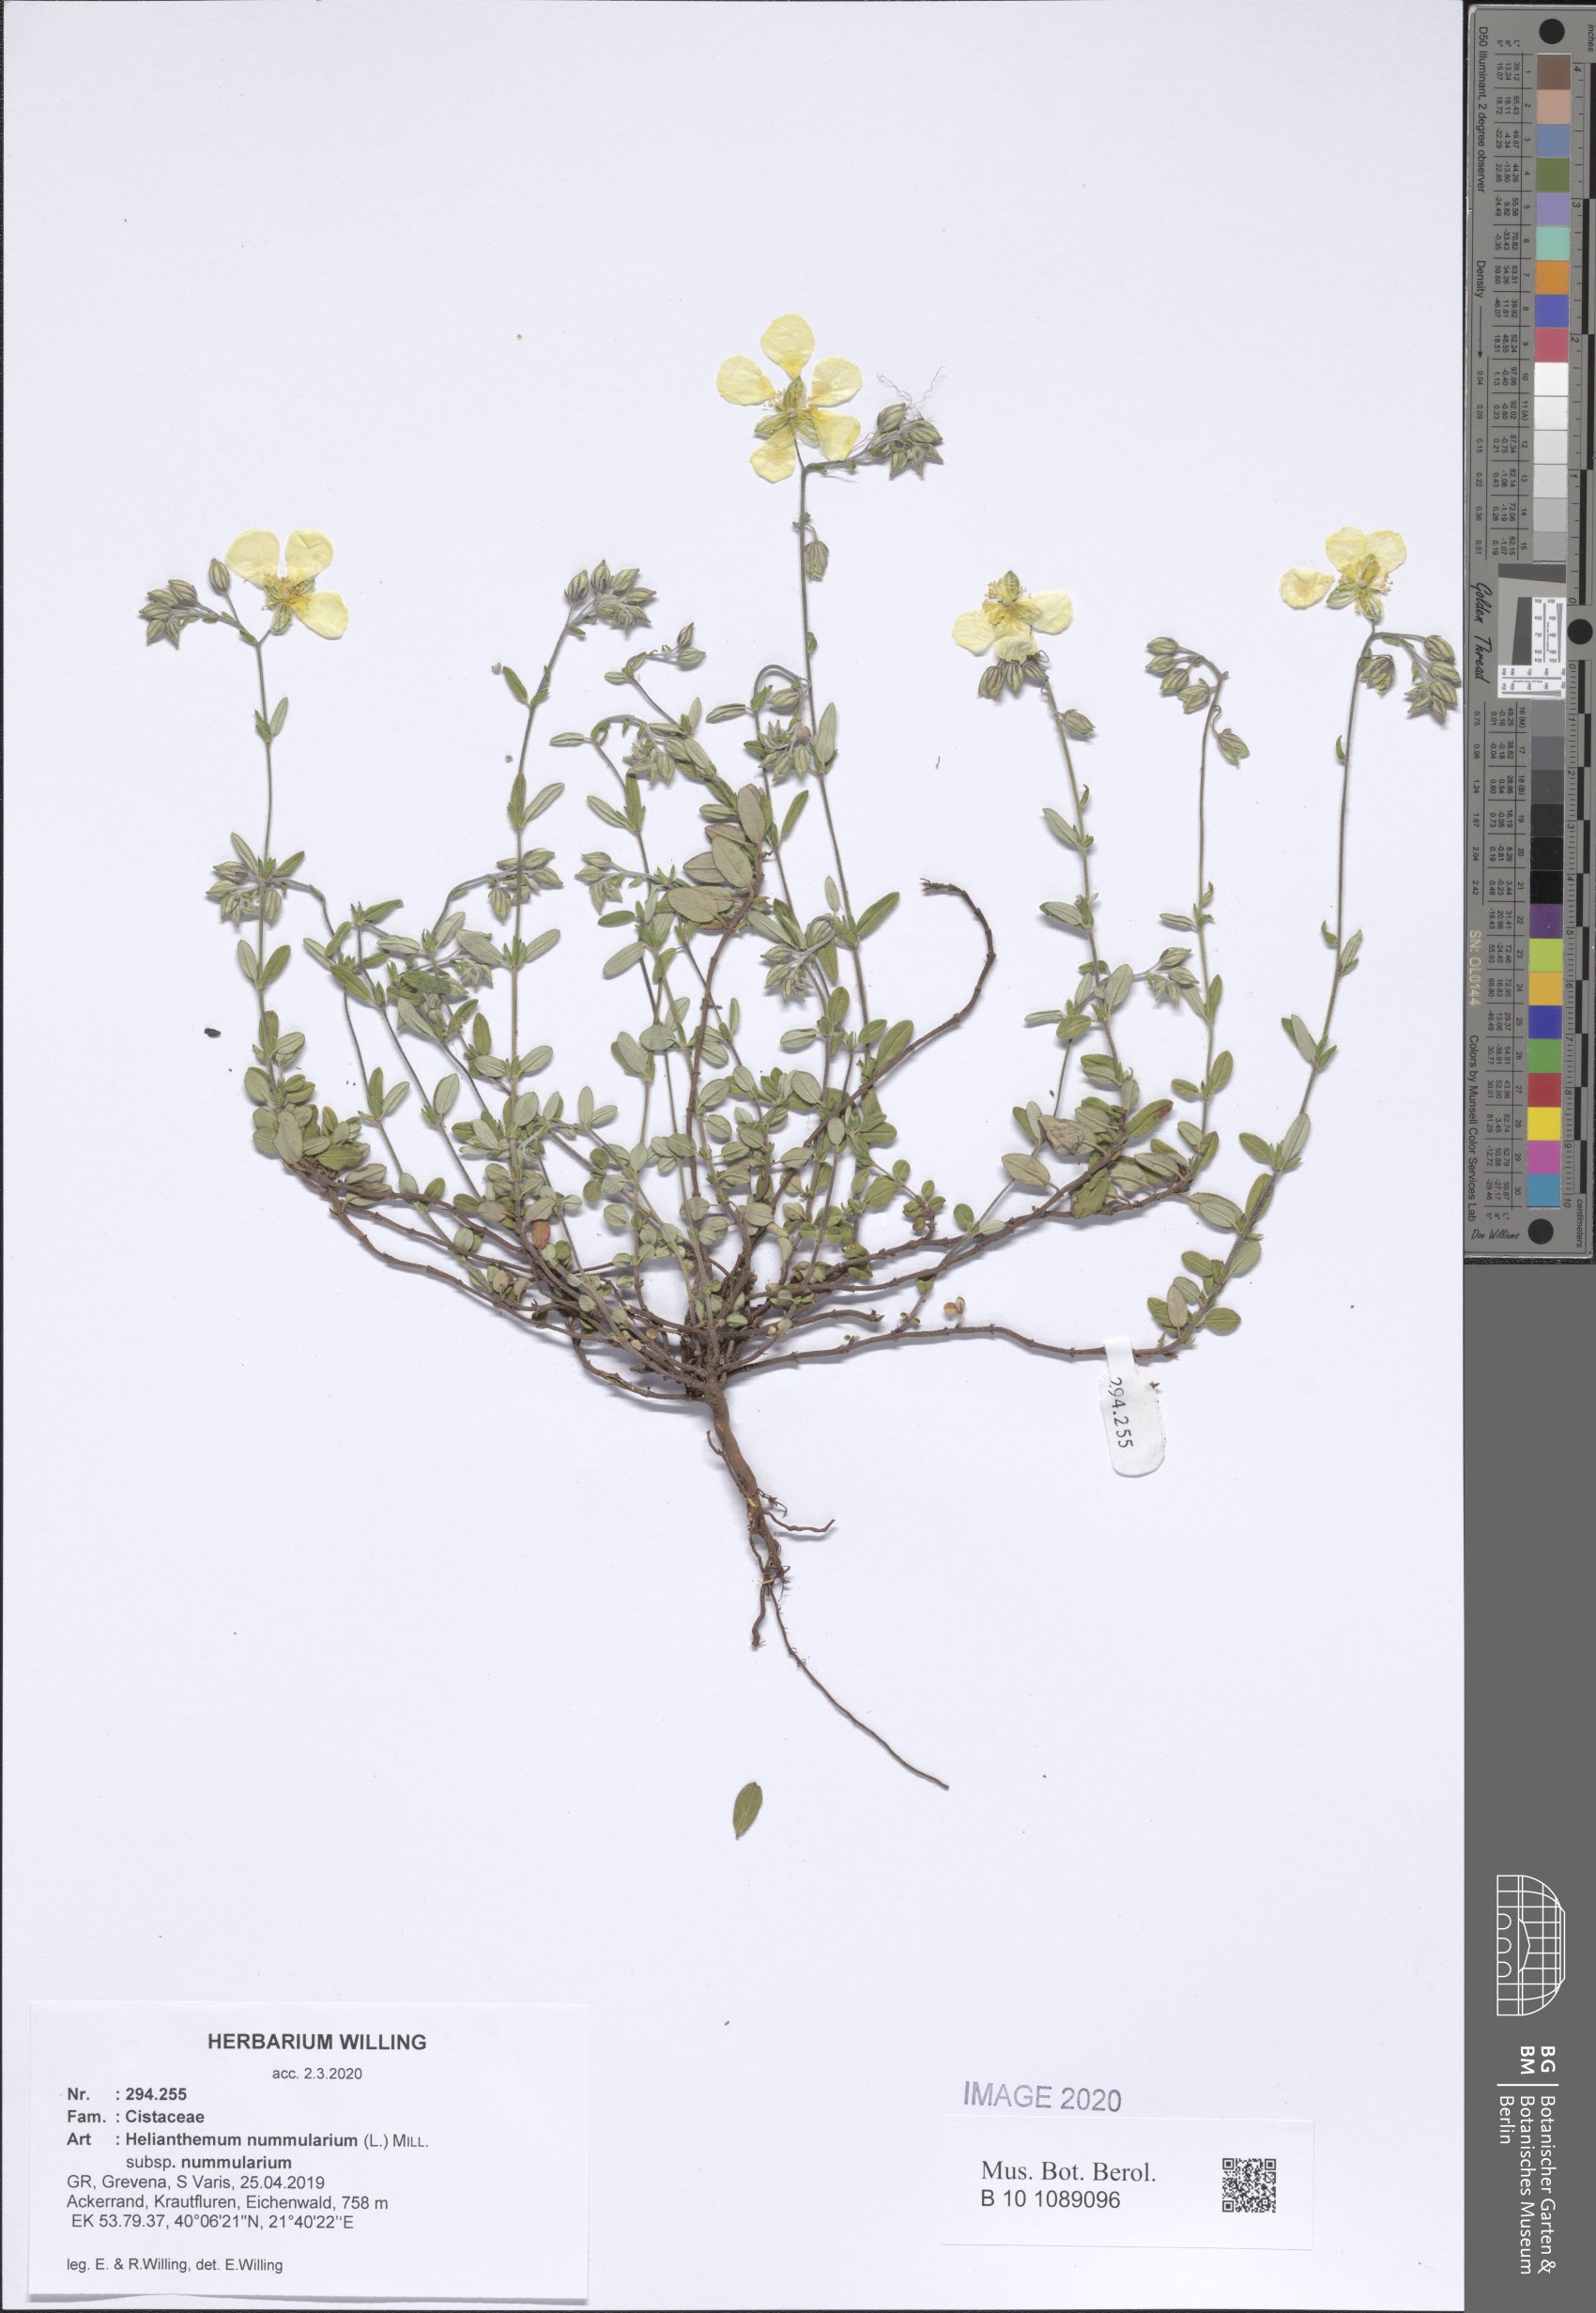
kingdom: Plantae
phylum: Tracheophyta
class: Magnoliopsida
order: Malvales
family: Cistaceae
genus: Helianthemum
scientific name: Helianthemum nummularium
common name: Common rock-rose
